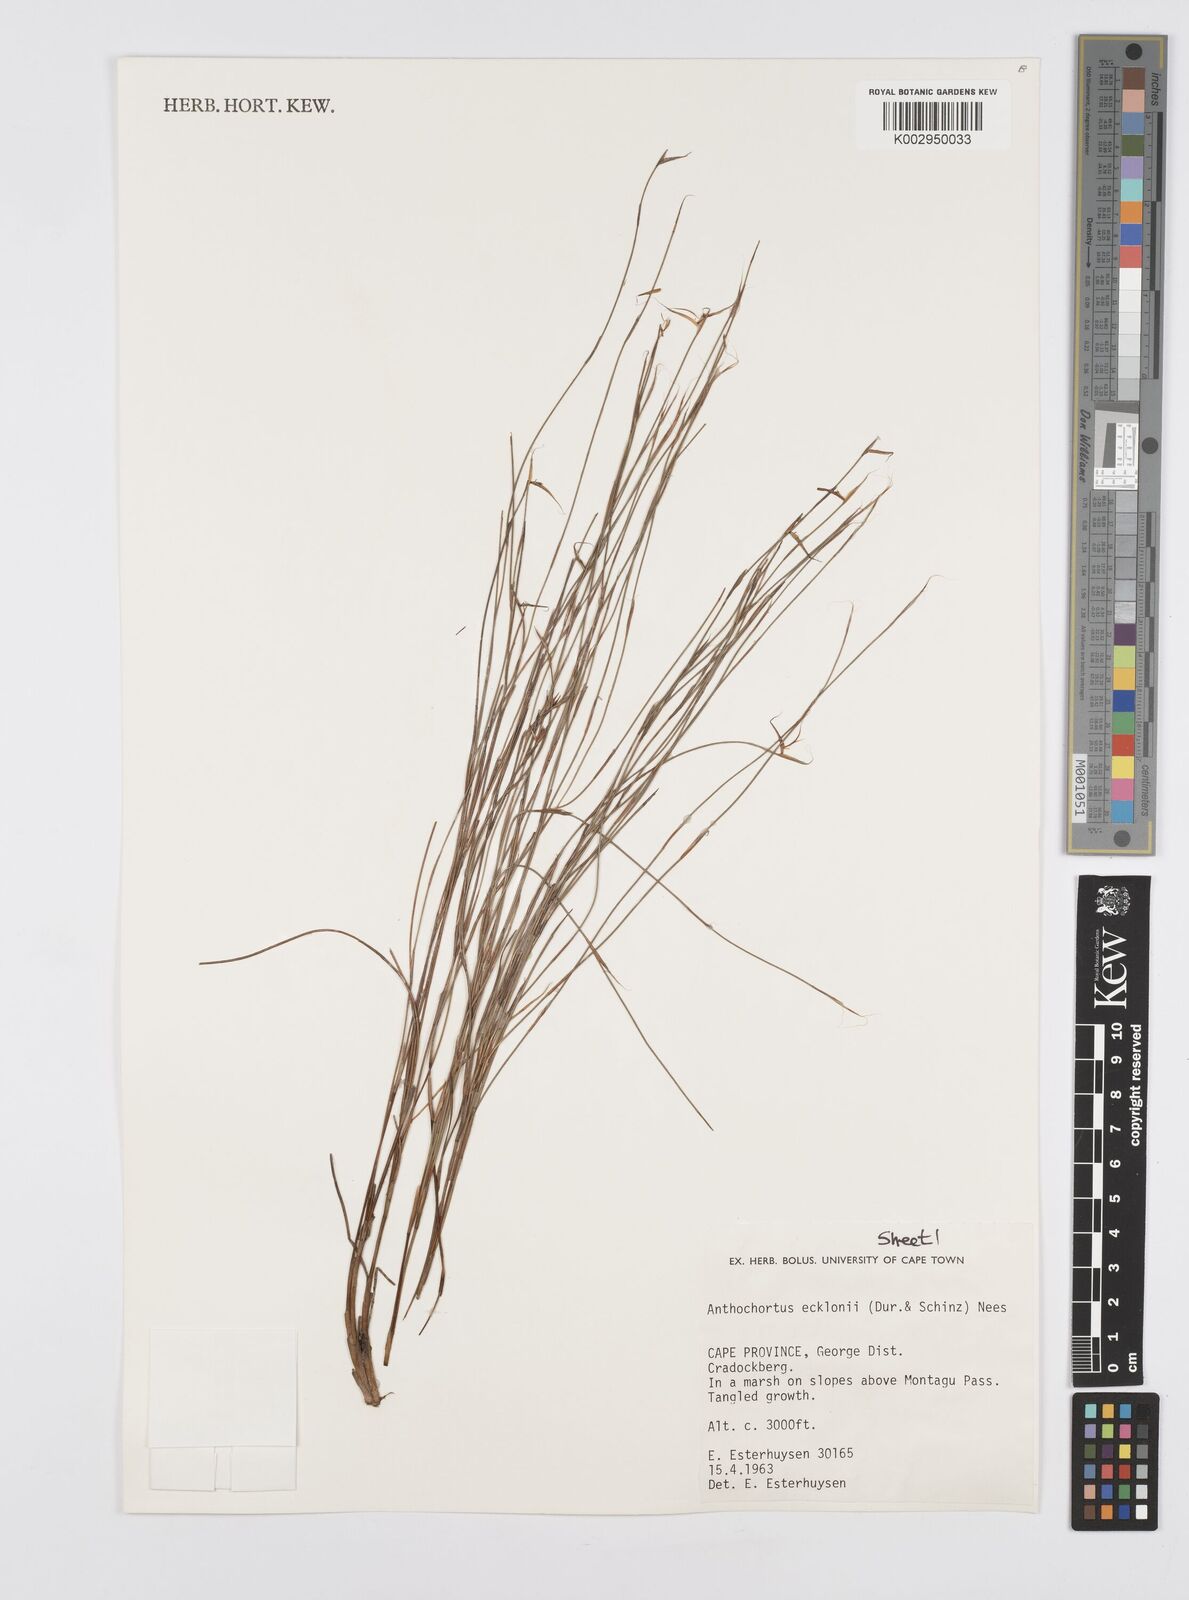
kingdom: Plantae
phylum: Tracheophyta
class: Liliopsida
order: Poales
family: Restionaceae
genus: Anthochortus
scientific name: Anthochortus ecklonii
